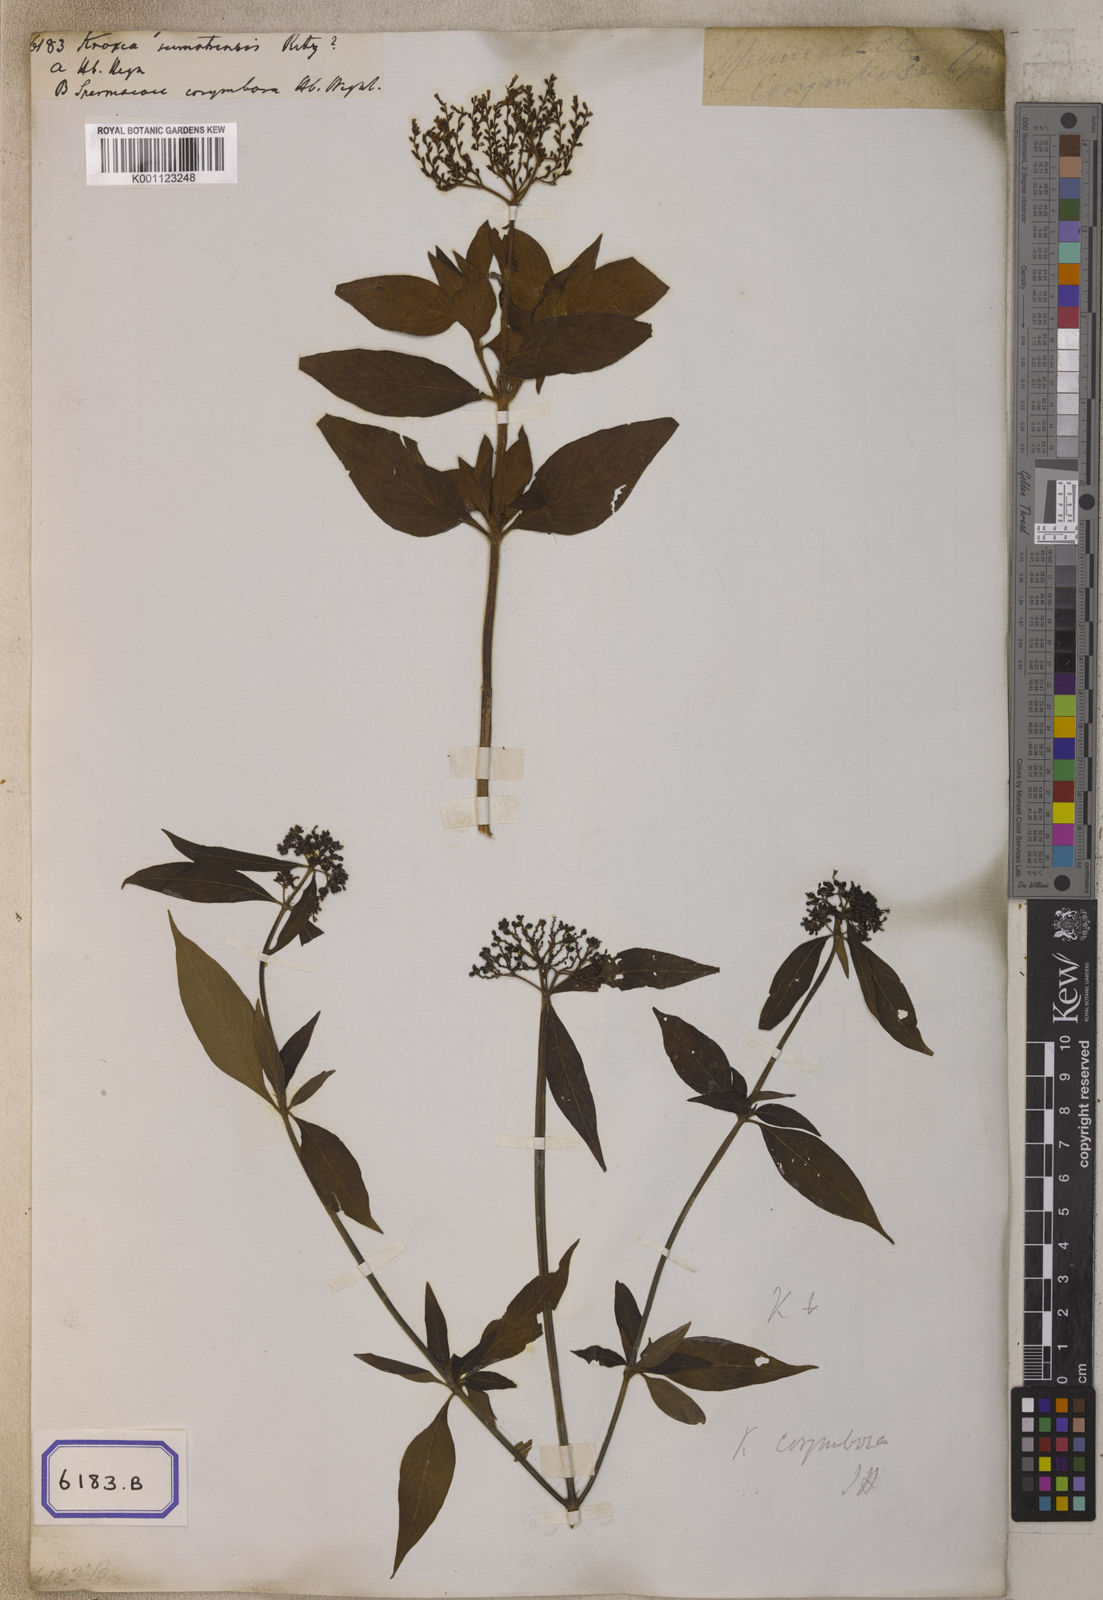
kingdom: Plantae
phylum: Tracheophyta
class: Magnoliopsida
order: Gentianales
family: Rubiaceae
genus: Knoxia
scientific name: Knoxia
